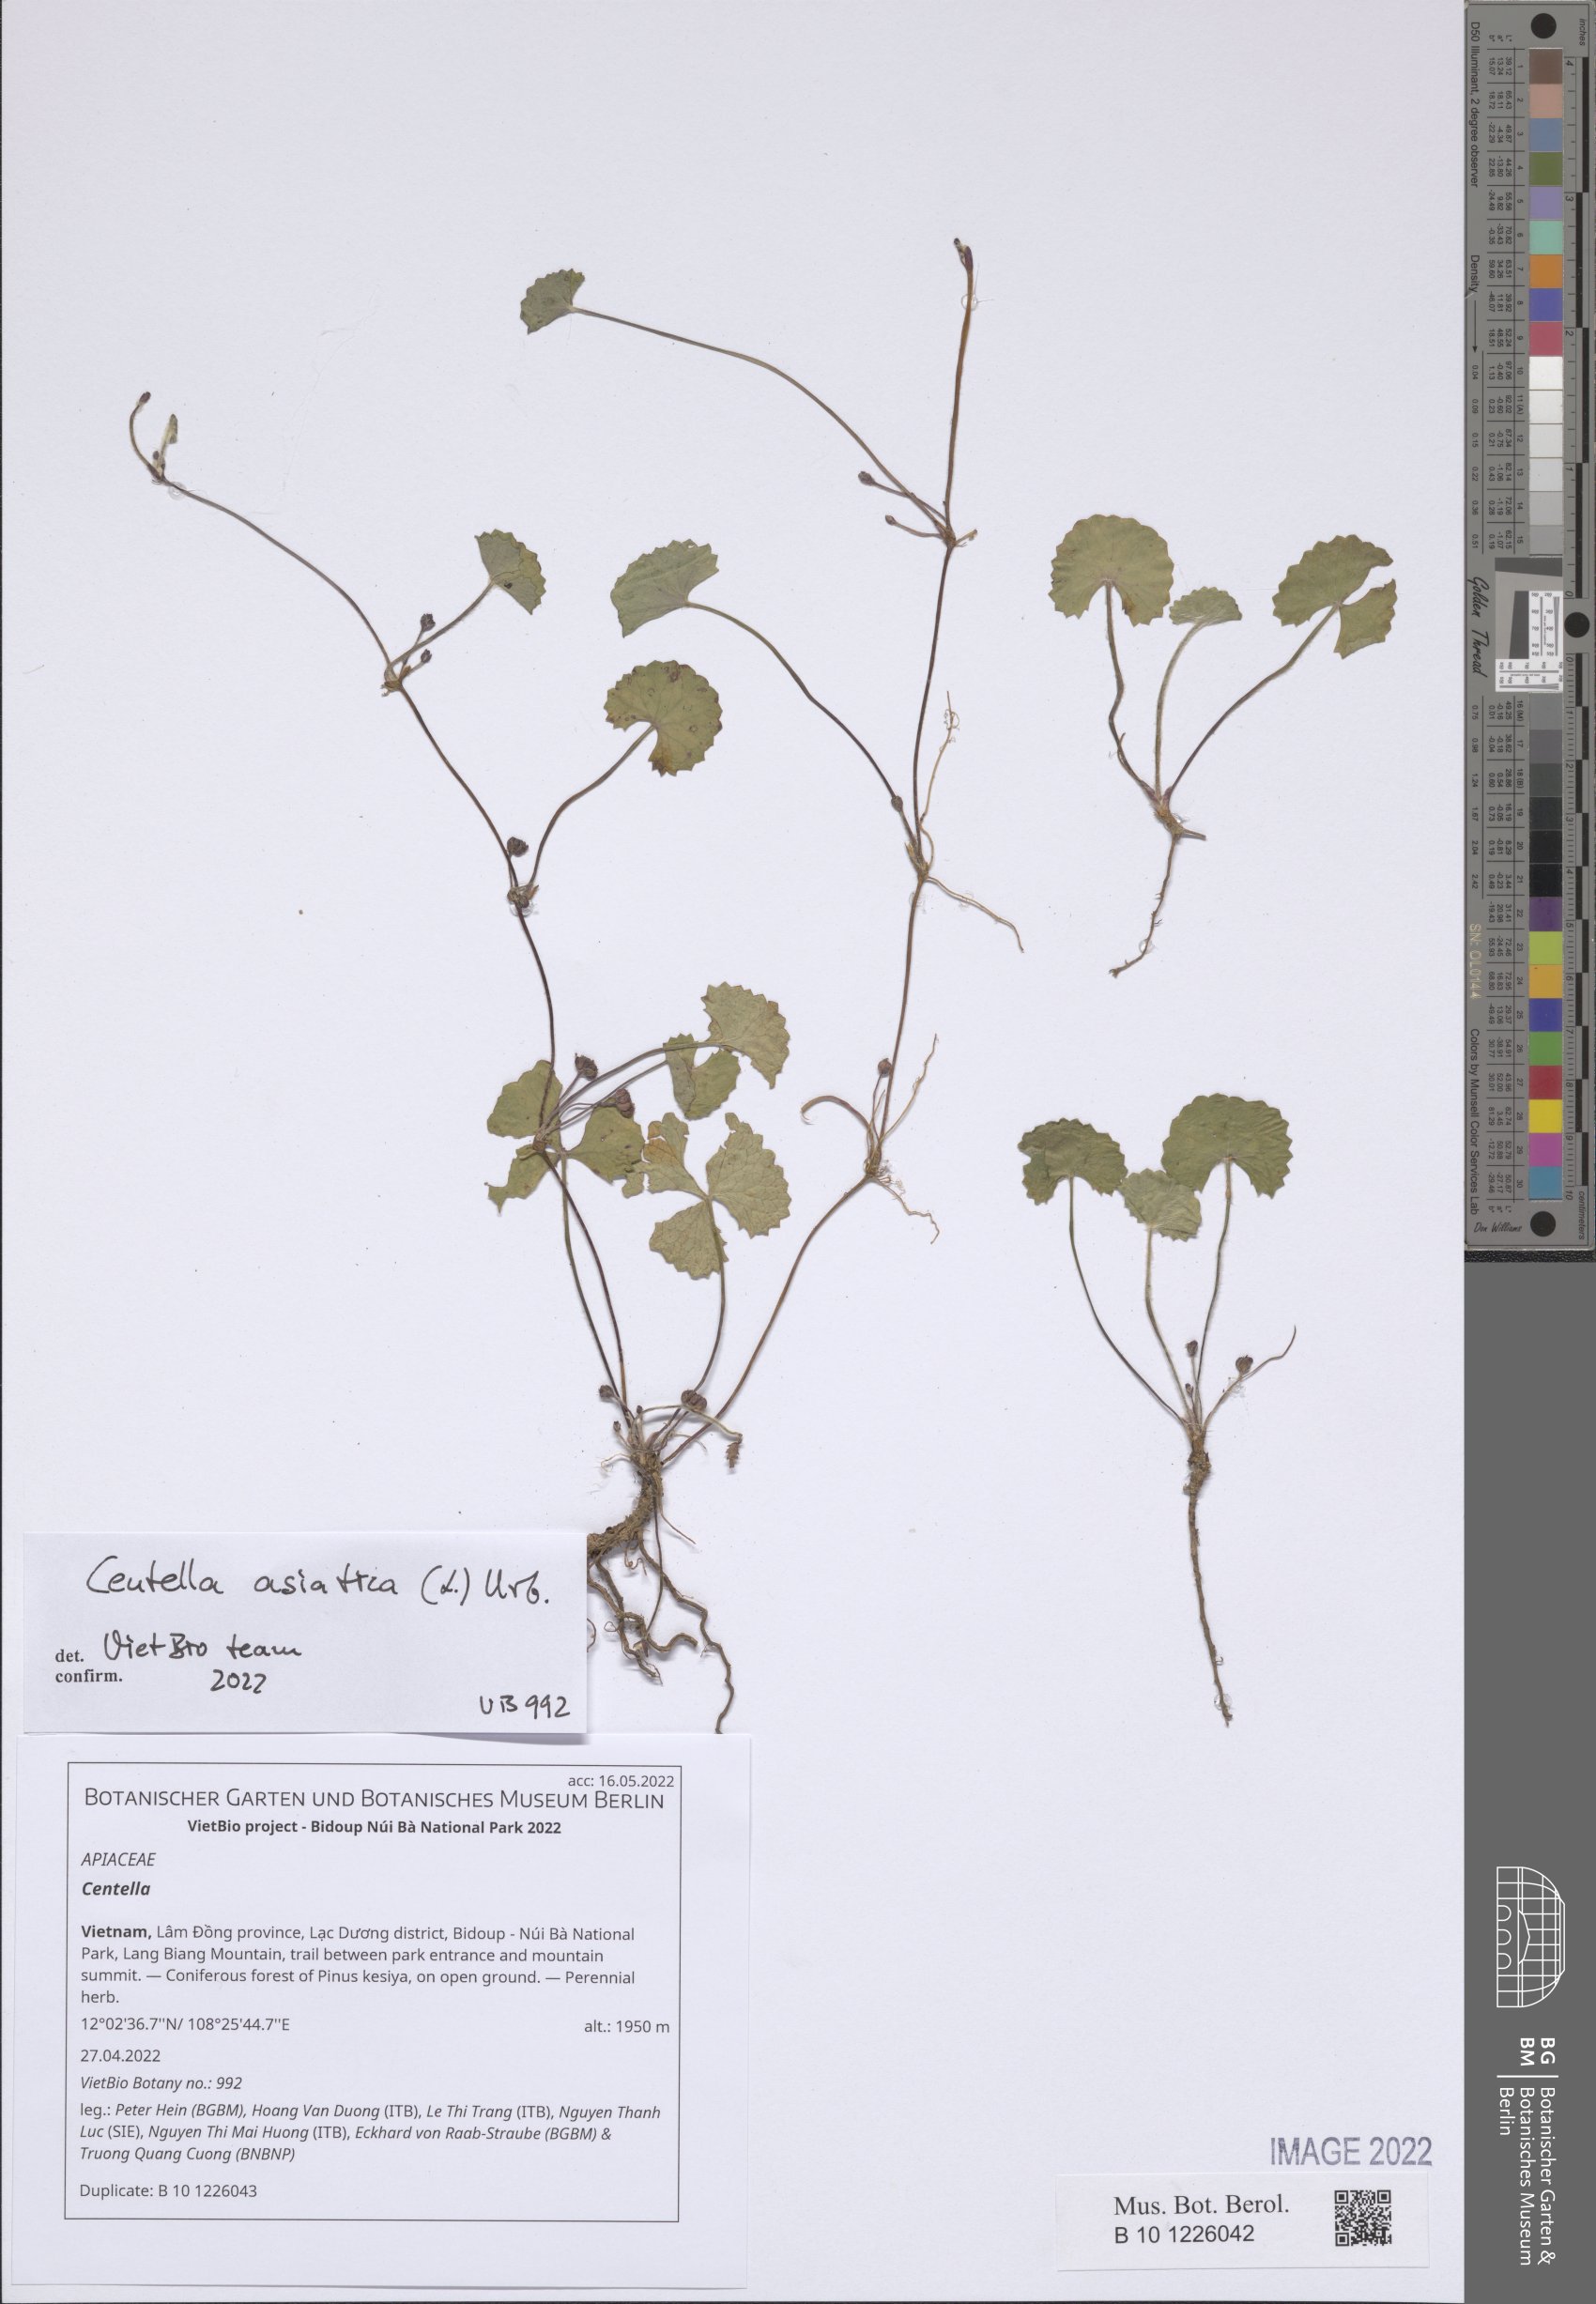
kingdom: Plantae
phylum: Tracheophyta
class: Magnoliopsida
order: Apiales
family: Apiaceae
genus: Centella
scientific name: Centella
